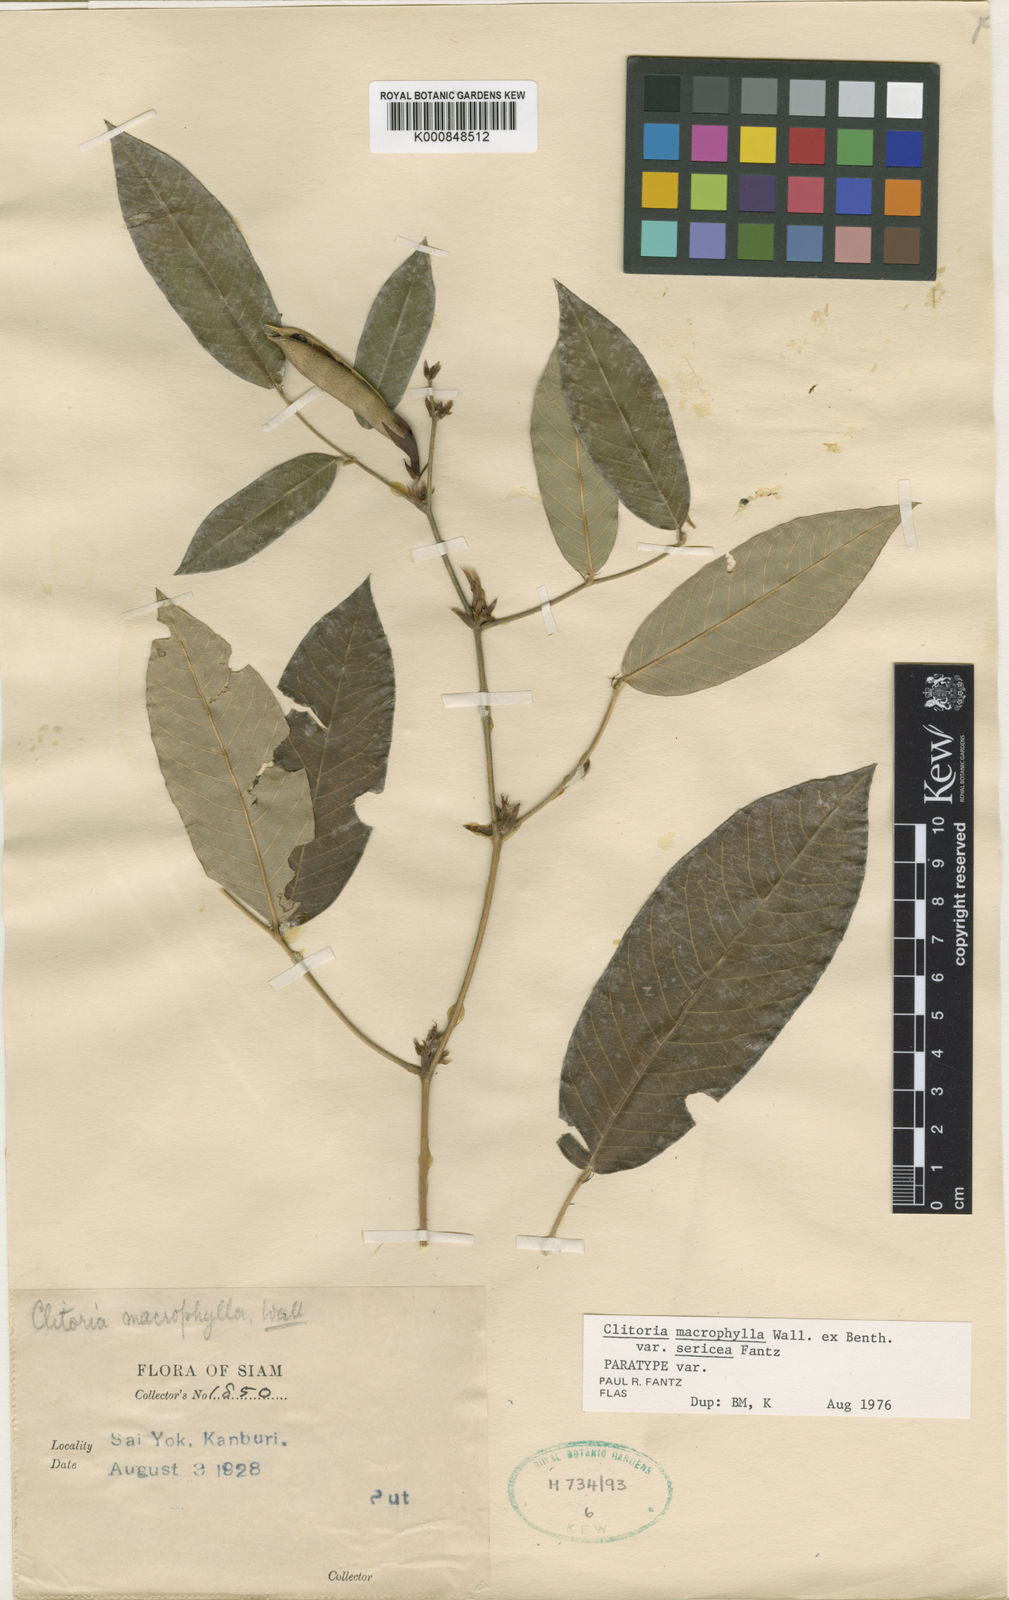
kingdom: Plantae
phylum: Tracheophyta
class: Magnoliopsida
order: Fabales
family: Fabaceae
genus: Clitoria
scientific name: Clitoria macrophylla
